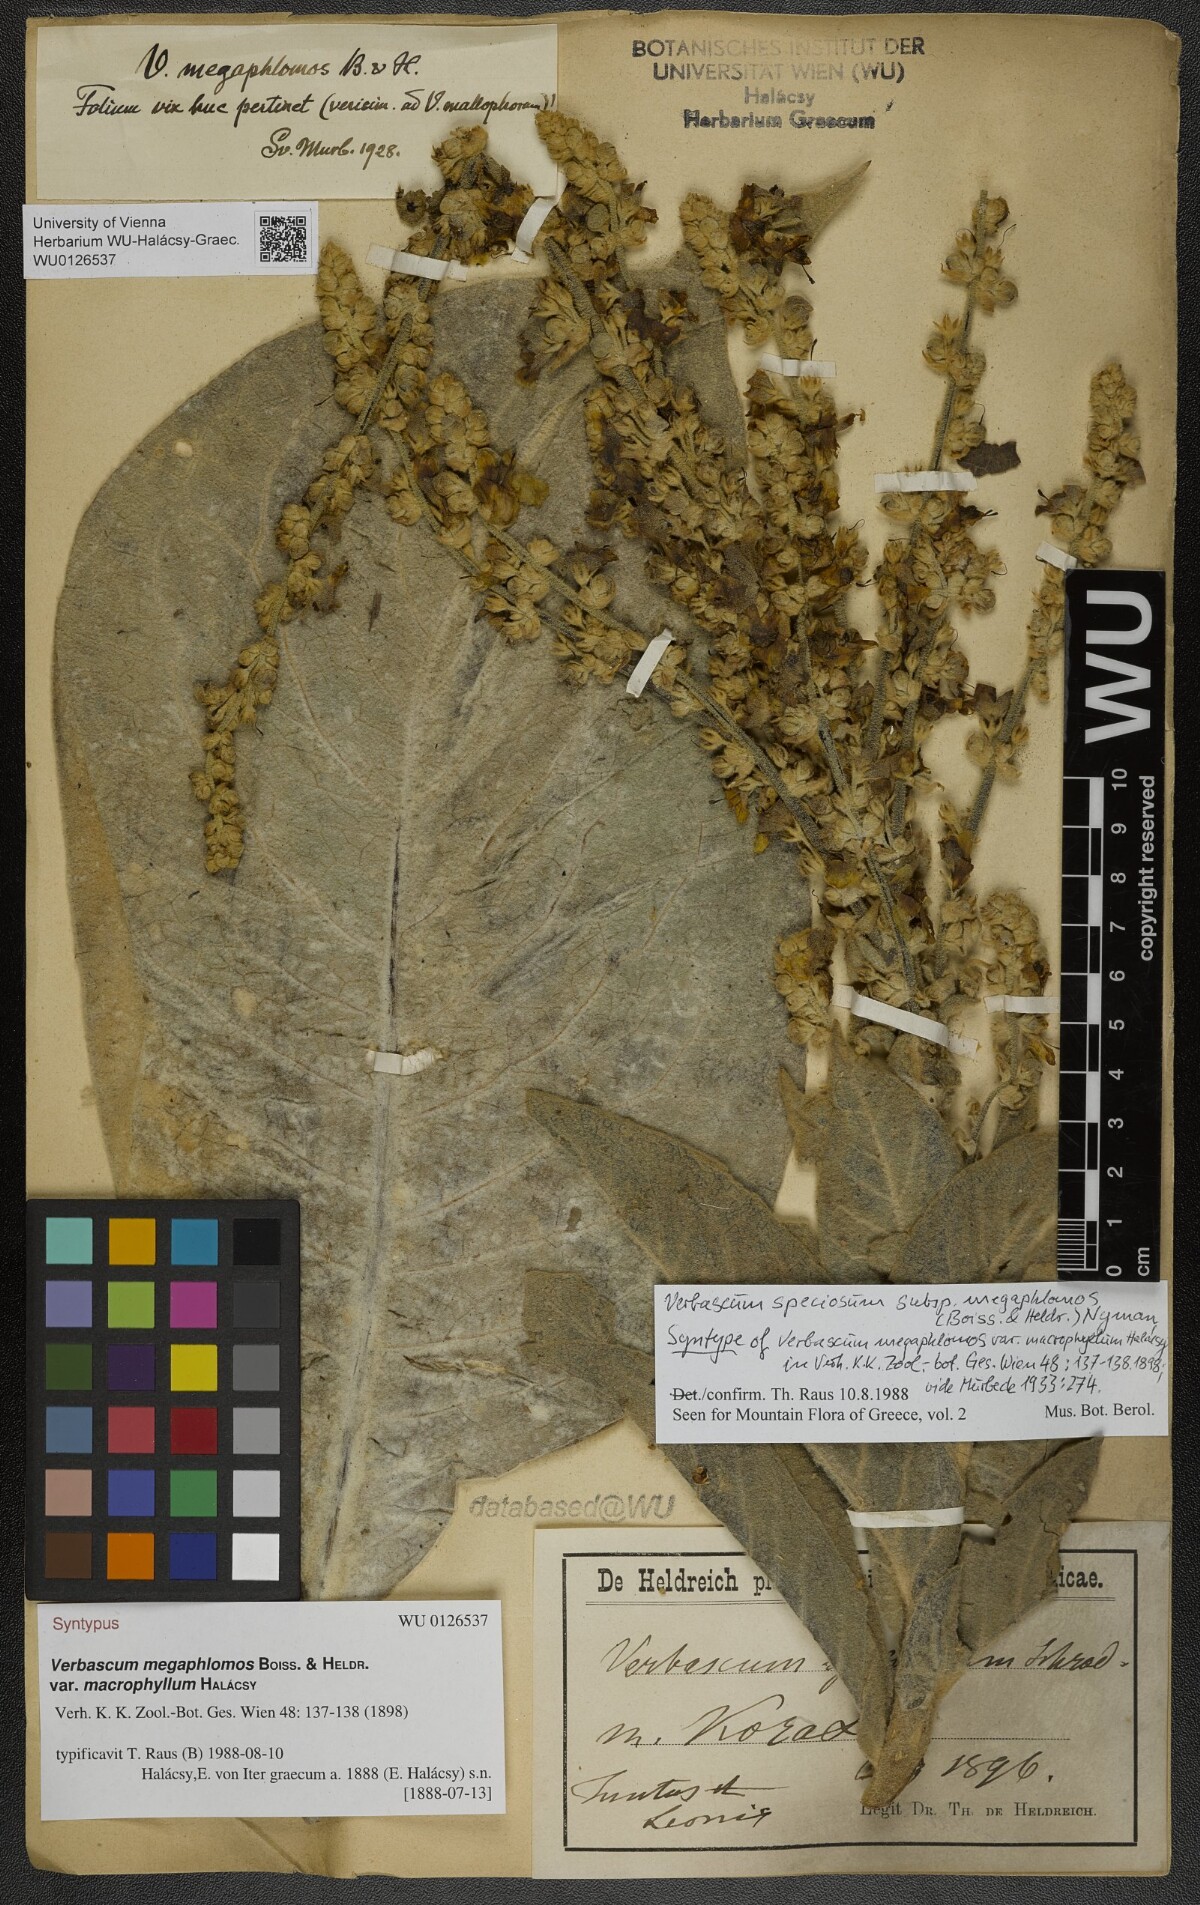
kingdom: Plantae
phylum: Tracheophyta
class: Magnoliopsida
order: Lamiales
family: Scrophulariaceae
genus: Verbascum
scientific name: Verbascum speciosum
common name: Hungarian mullein
